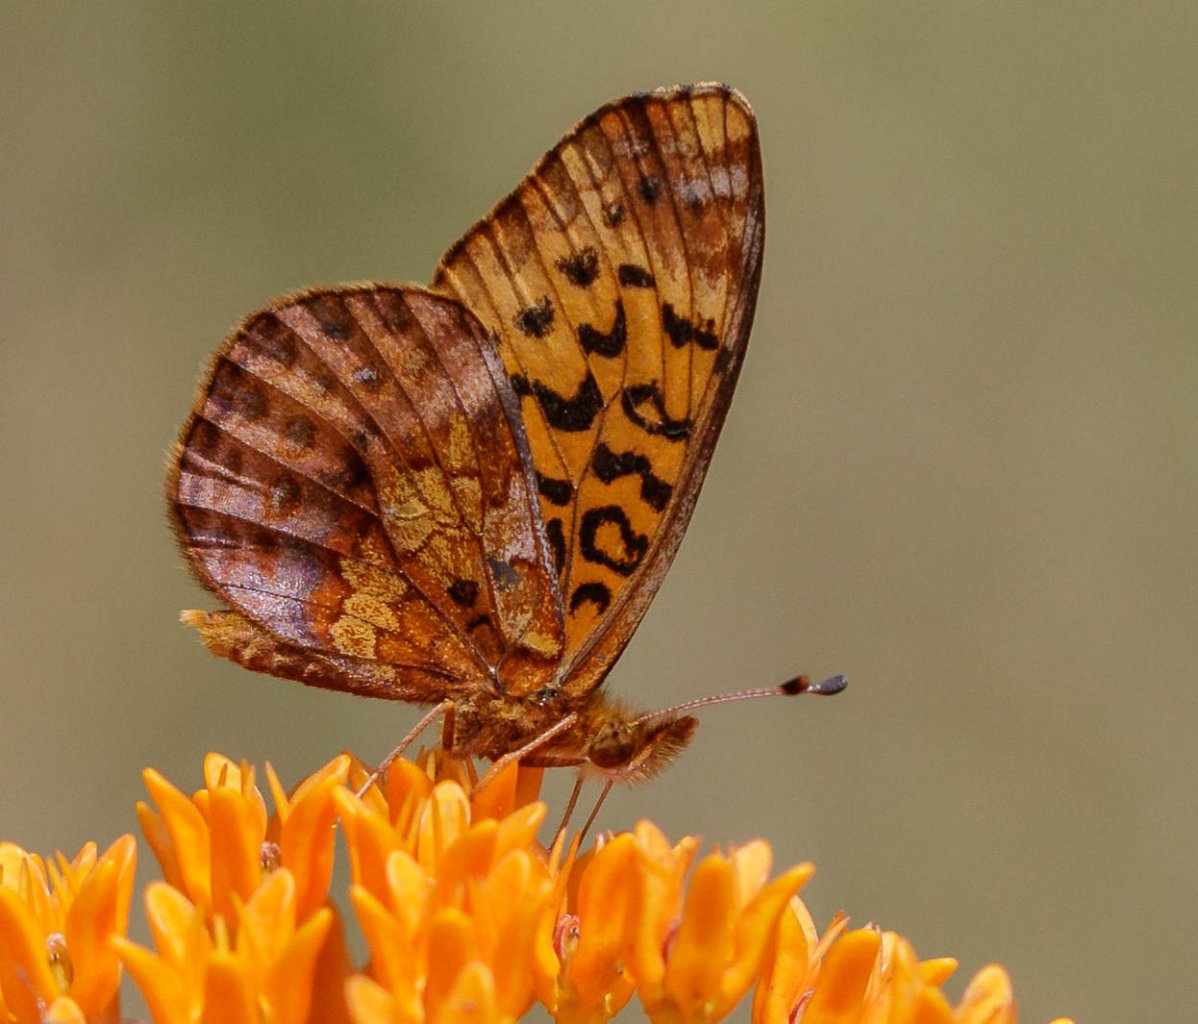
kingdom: Animalia
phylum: Arthropoda
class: Insecta
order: Lepidoptera
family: Nymphalidae
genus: Clossiana
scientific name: Clossiana toddi
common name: Meadow Fritillary
